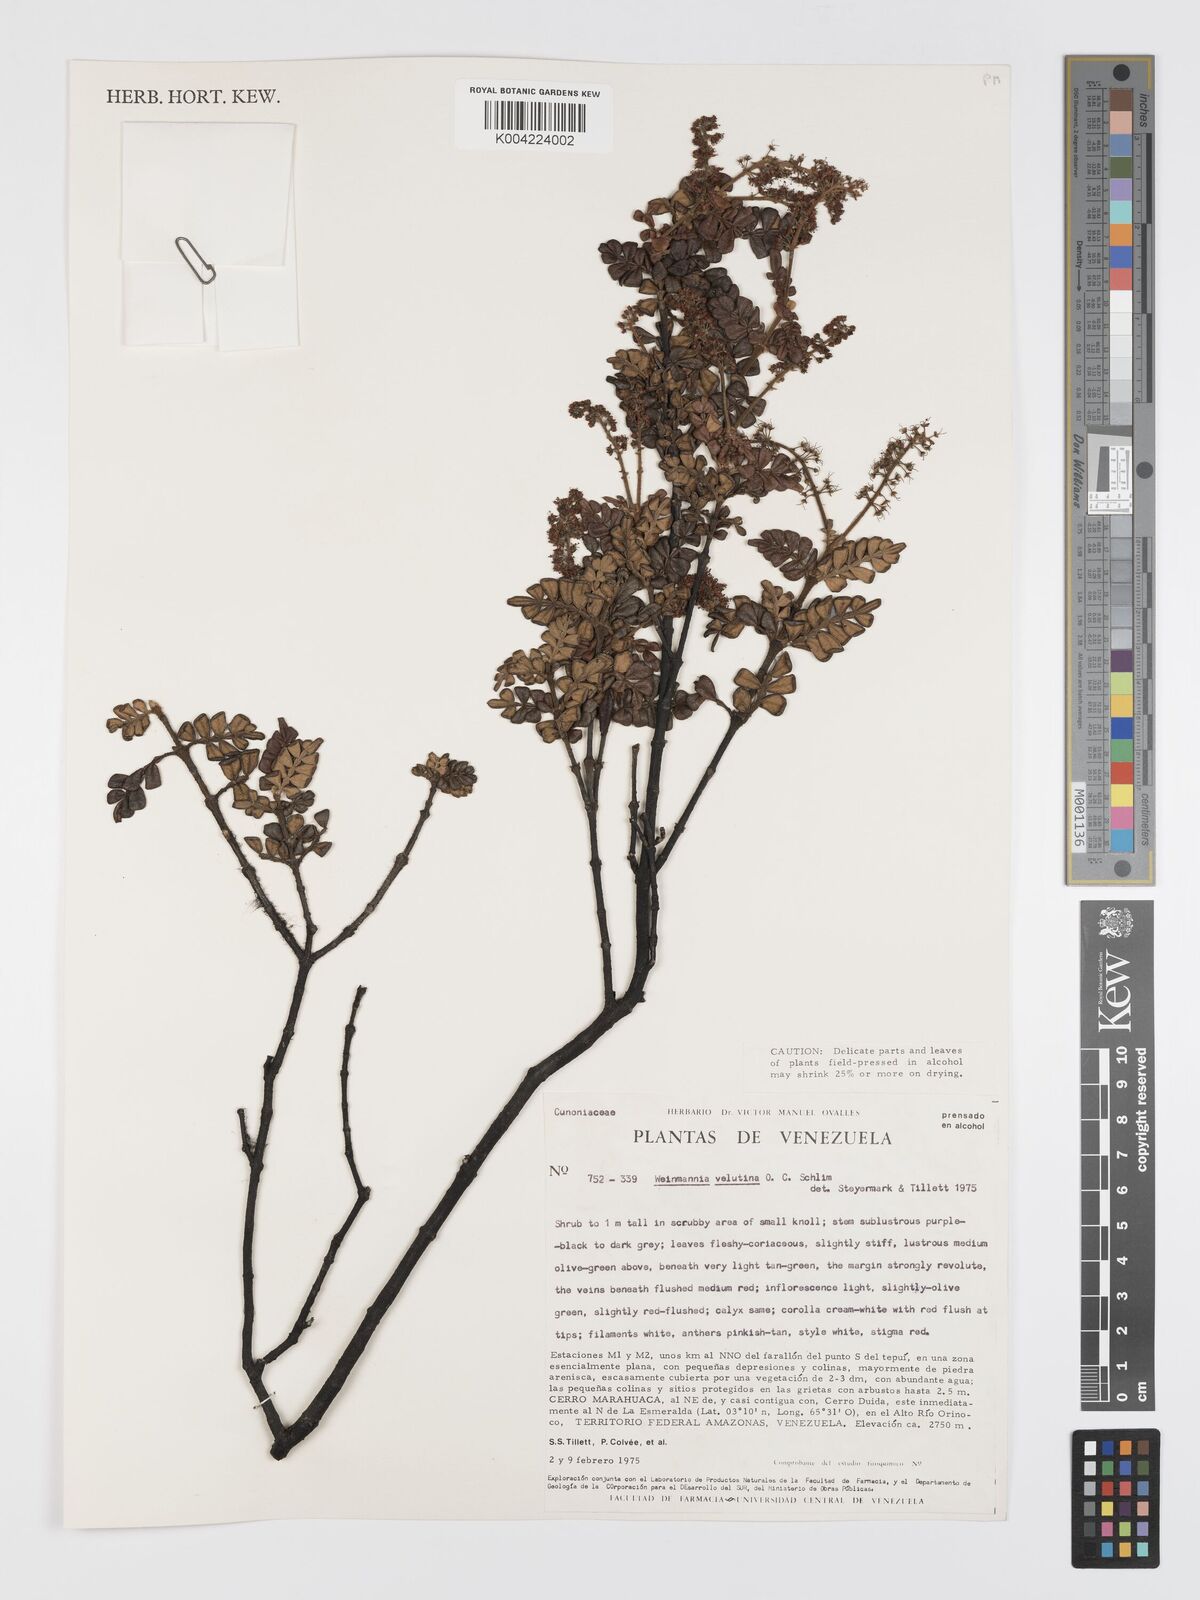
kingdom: Plantae
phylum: Tracheophyta
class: Magnoliopsida
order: Oxalidales
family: Cunoniaceae
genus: Weinmannia
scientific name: Weinmannia velutina
